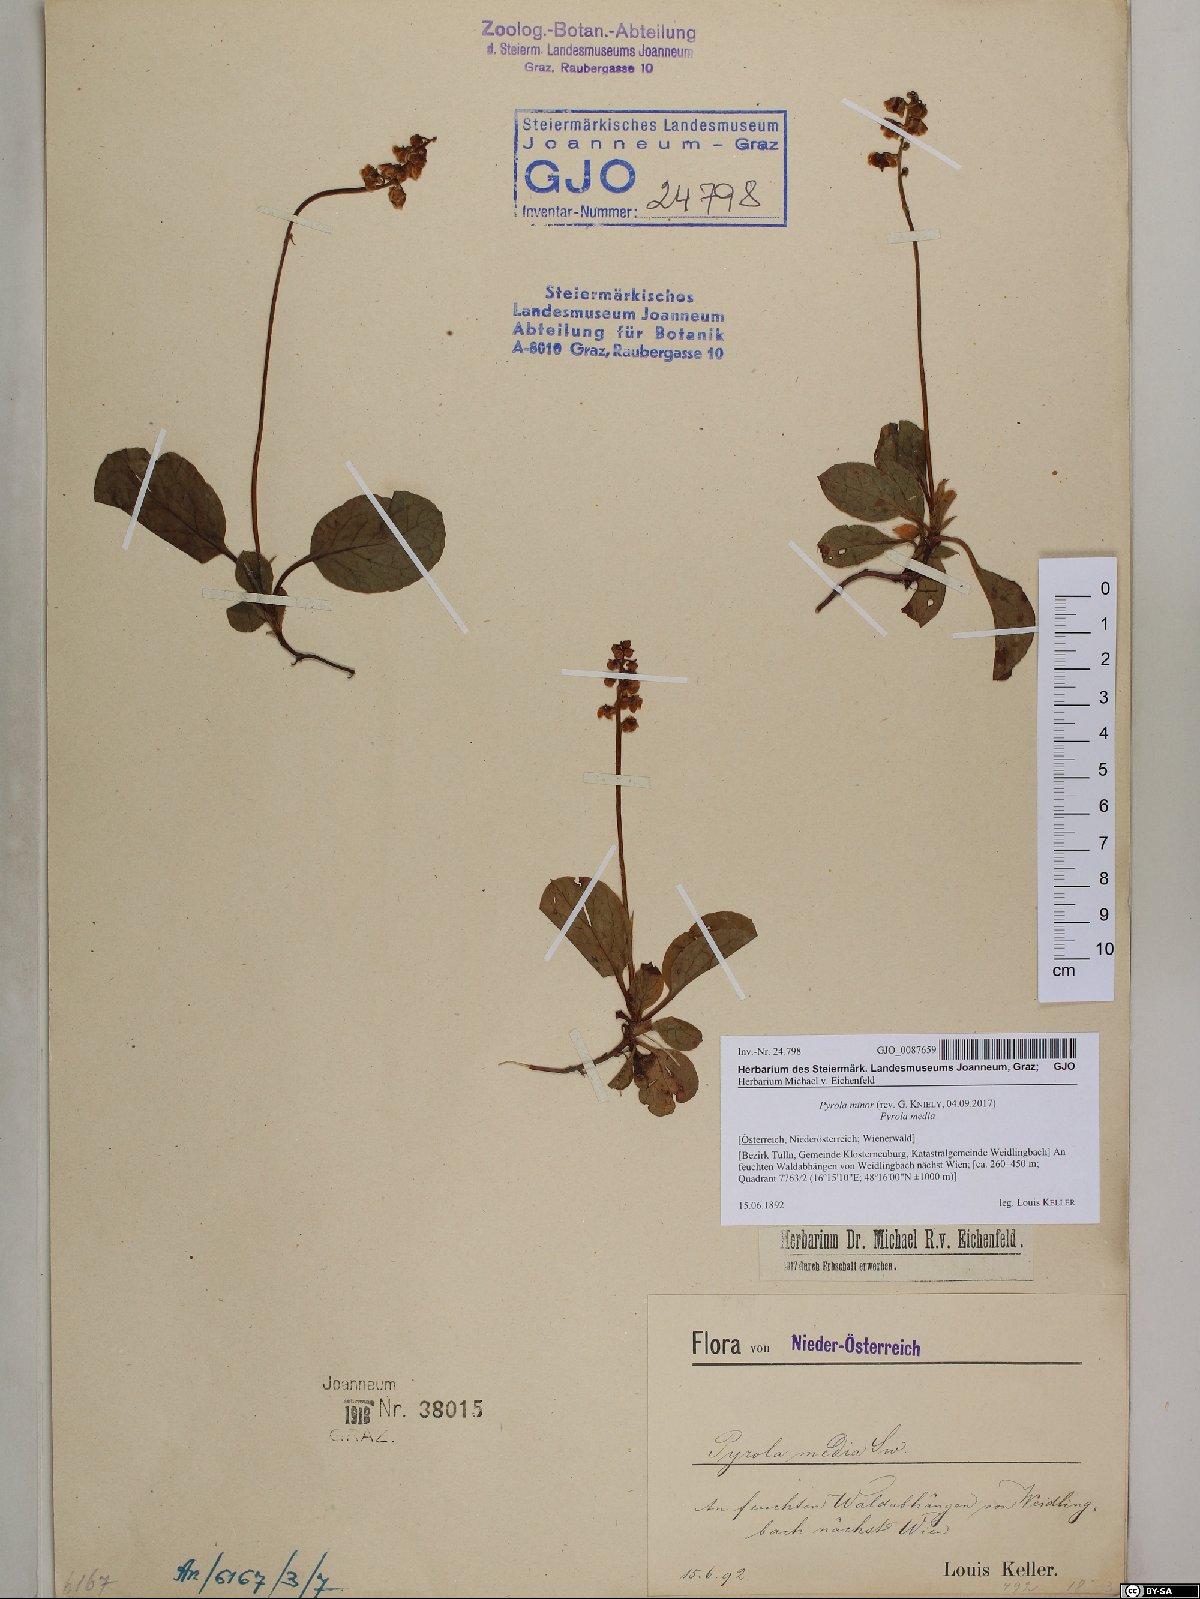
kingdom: Plantae
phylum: Tracheophyta
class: Magnoliopsida
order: Ericales
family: Ericaceae
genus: Pyrola
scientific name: Pyrola minor
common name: Common wintergreen
